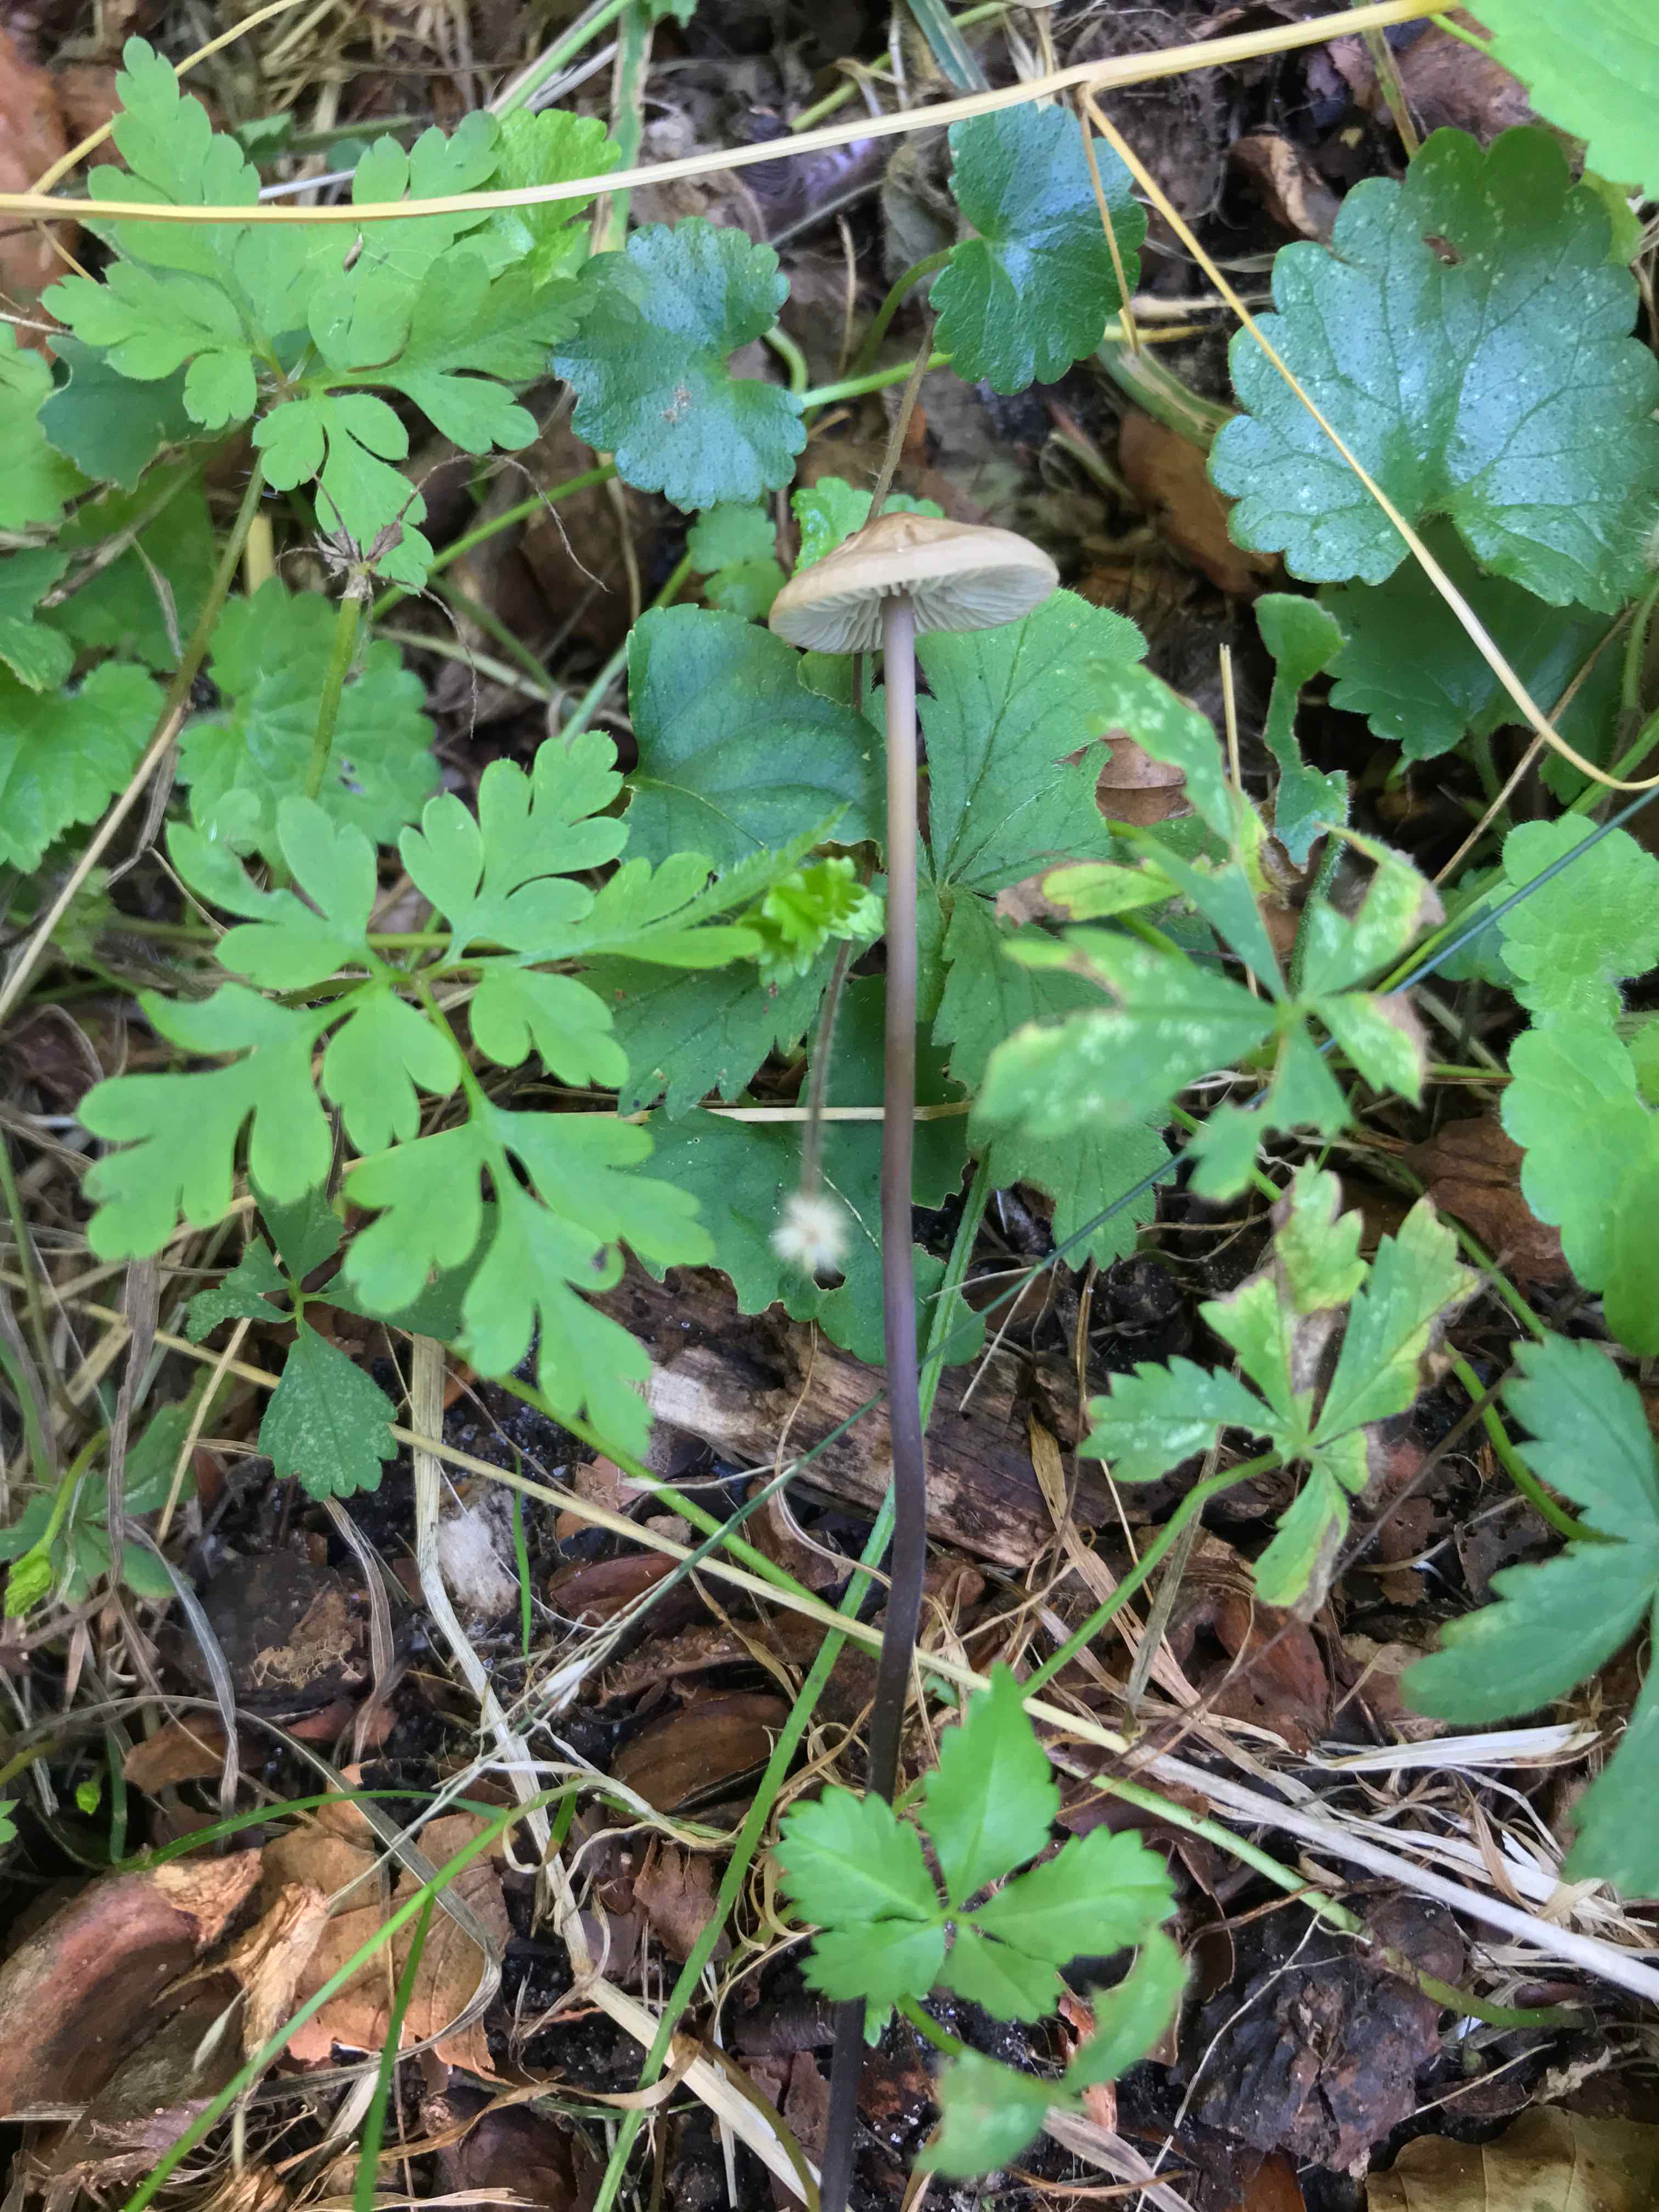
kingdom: Fungi
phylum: Basidiomycota
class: Agaricomycetes
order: Agaricales
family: Omphalotaceae
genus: Mycetinis
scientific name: Mycetinis alliaceus
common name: stor løghat
